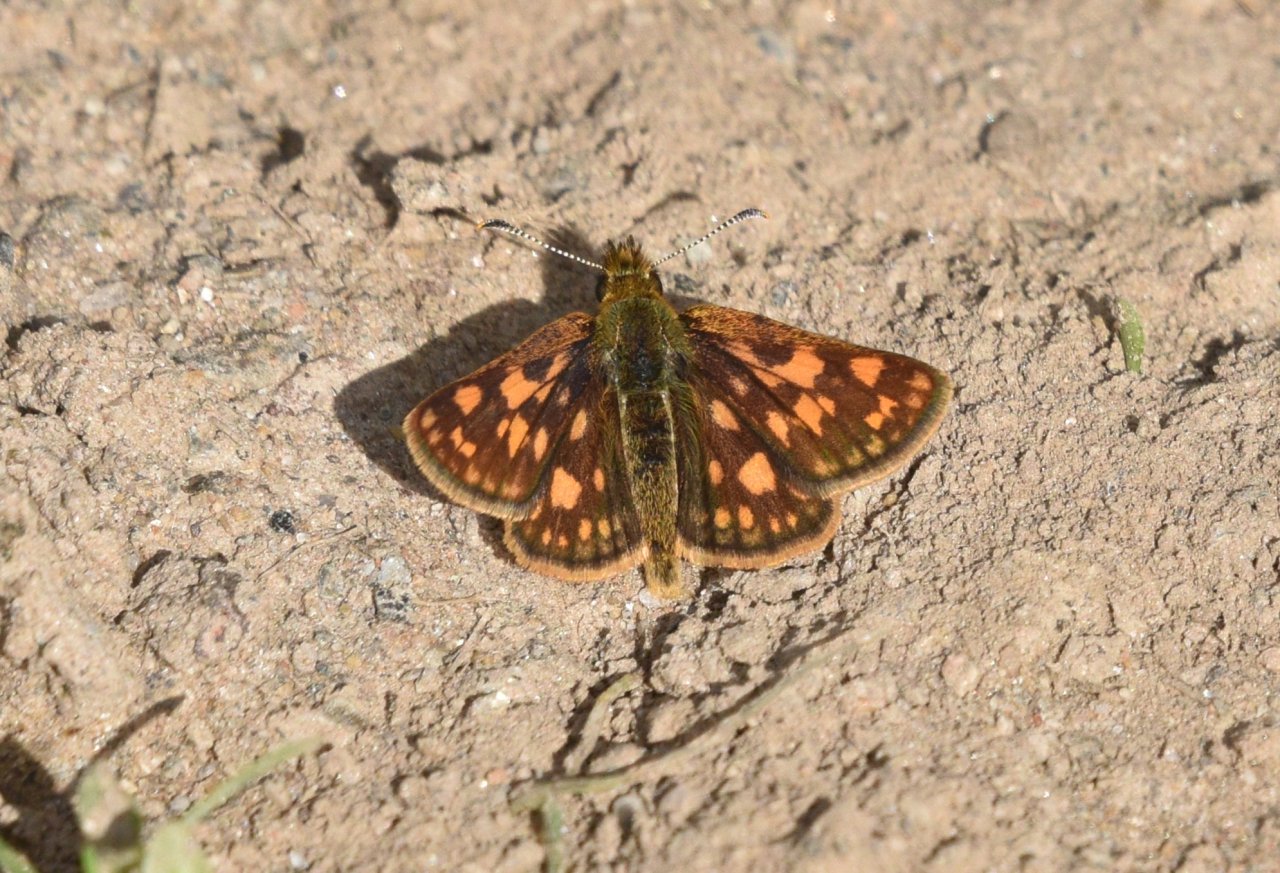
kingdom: Animalia
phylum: Arthropoda
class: Insecta
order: Lepidoptera
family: Hesperiidae
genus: Carterocephalus
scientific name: Carterocephalus palaemon
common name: Chequered Skipper
